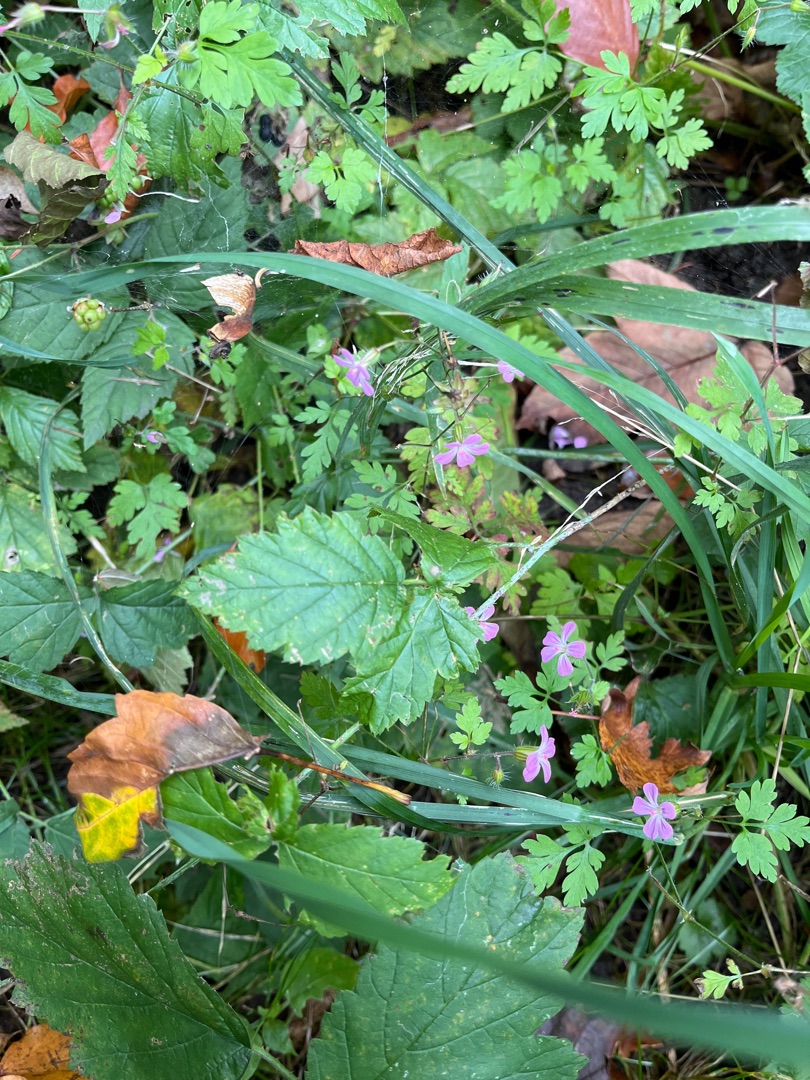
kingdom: Plantae
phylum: Tracheophyta
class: Magnoliopsida
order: Geraniales
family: Geraniaceae
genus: Geranium
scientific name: Geranium robertianum
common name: Stinkende storkenæb
